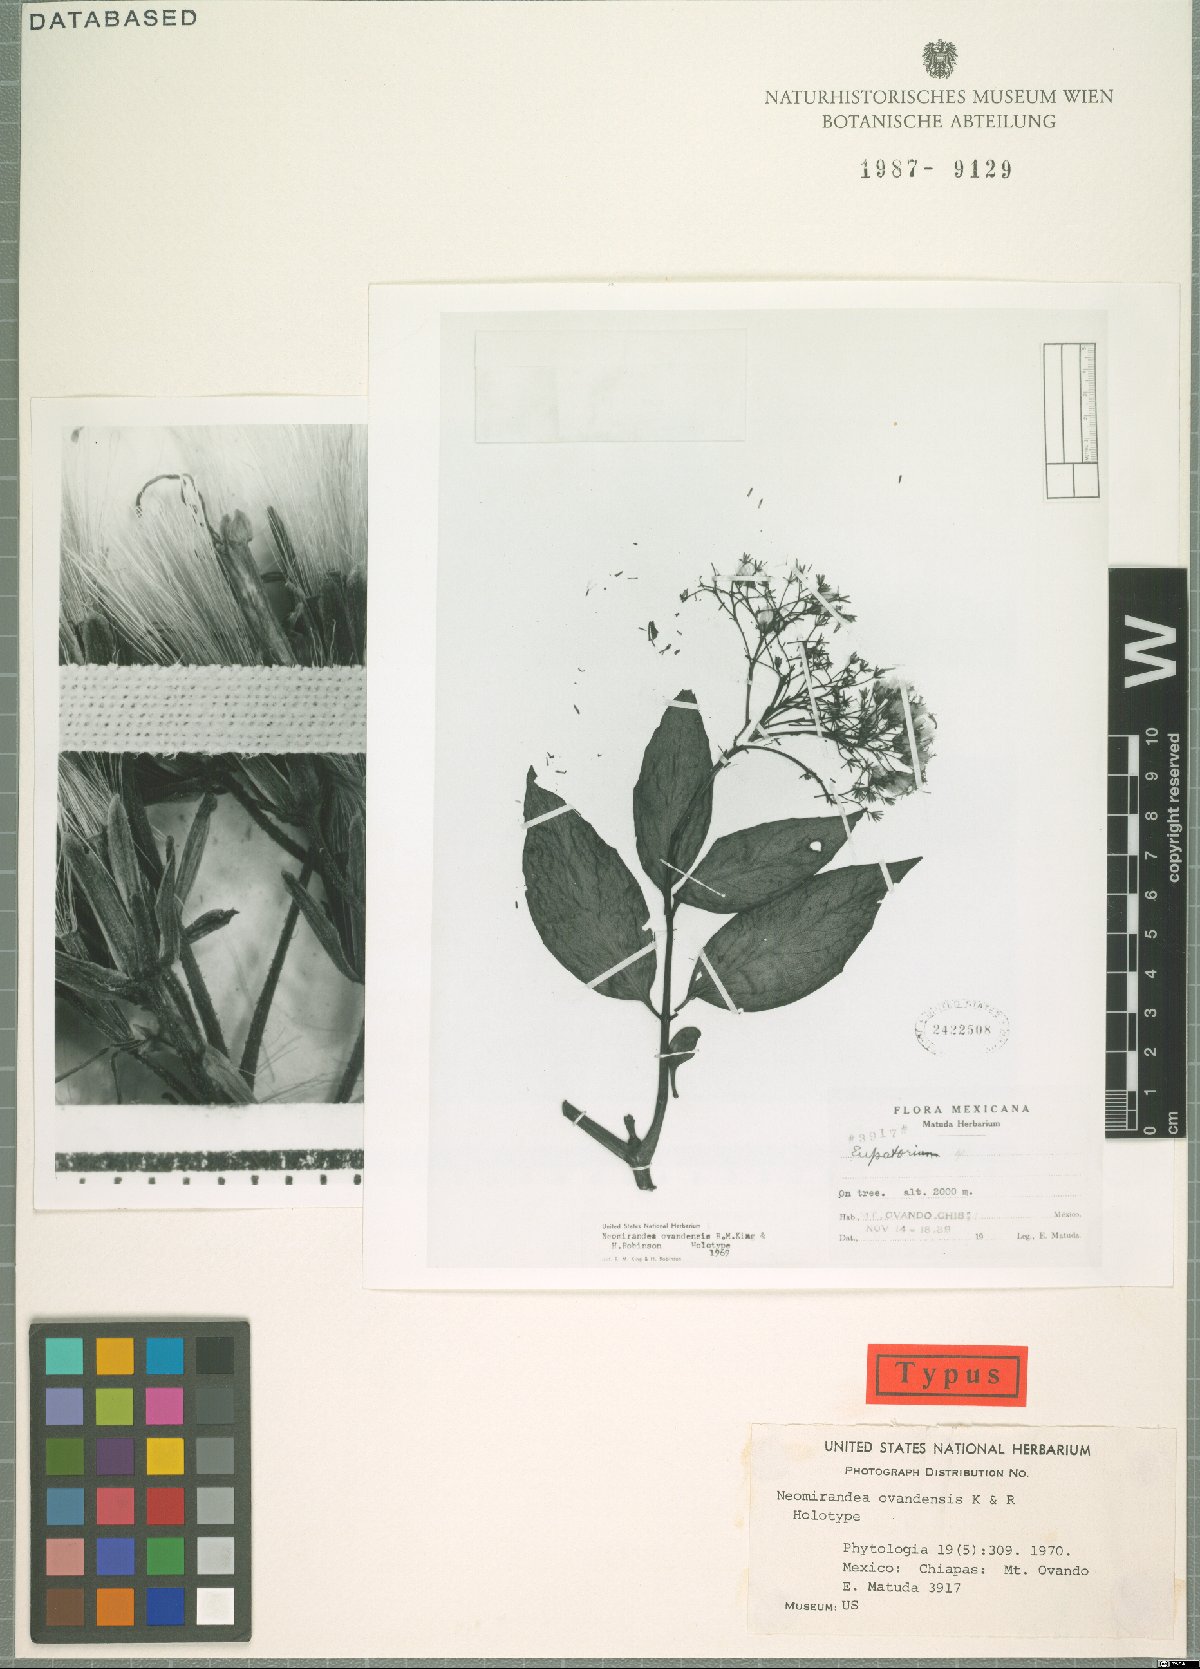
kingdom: Plantae
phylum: Tracheophyta
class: Magnoliopsida
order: Asterales
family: Asteraceae
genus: Neomirandea
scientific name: Neomirandea ovandensis
